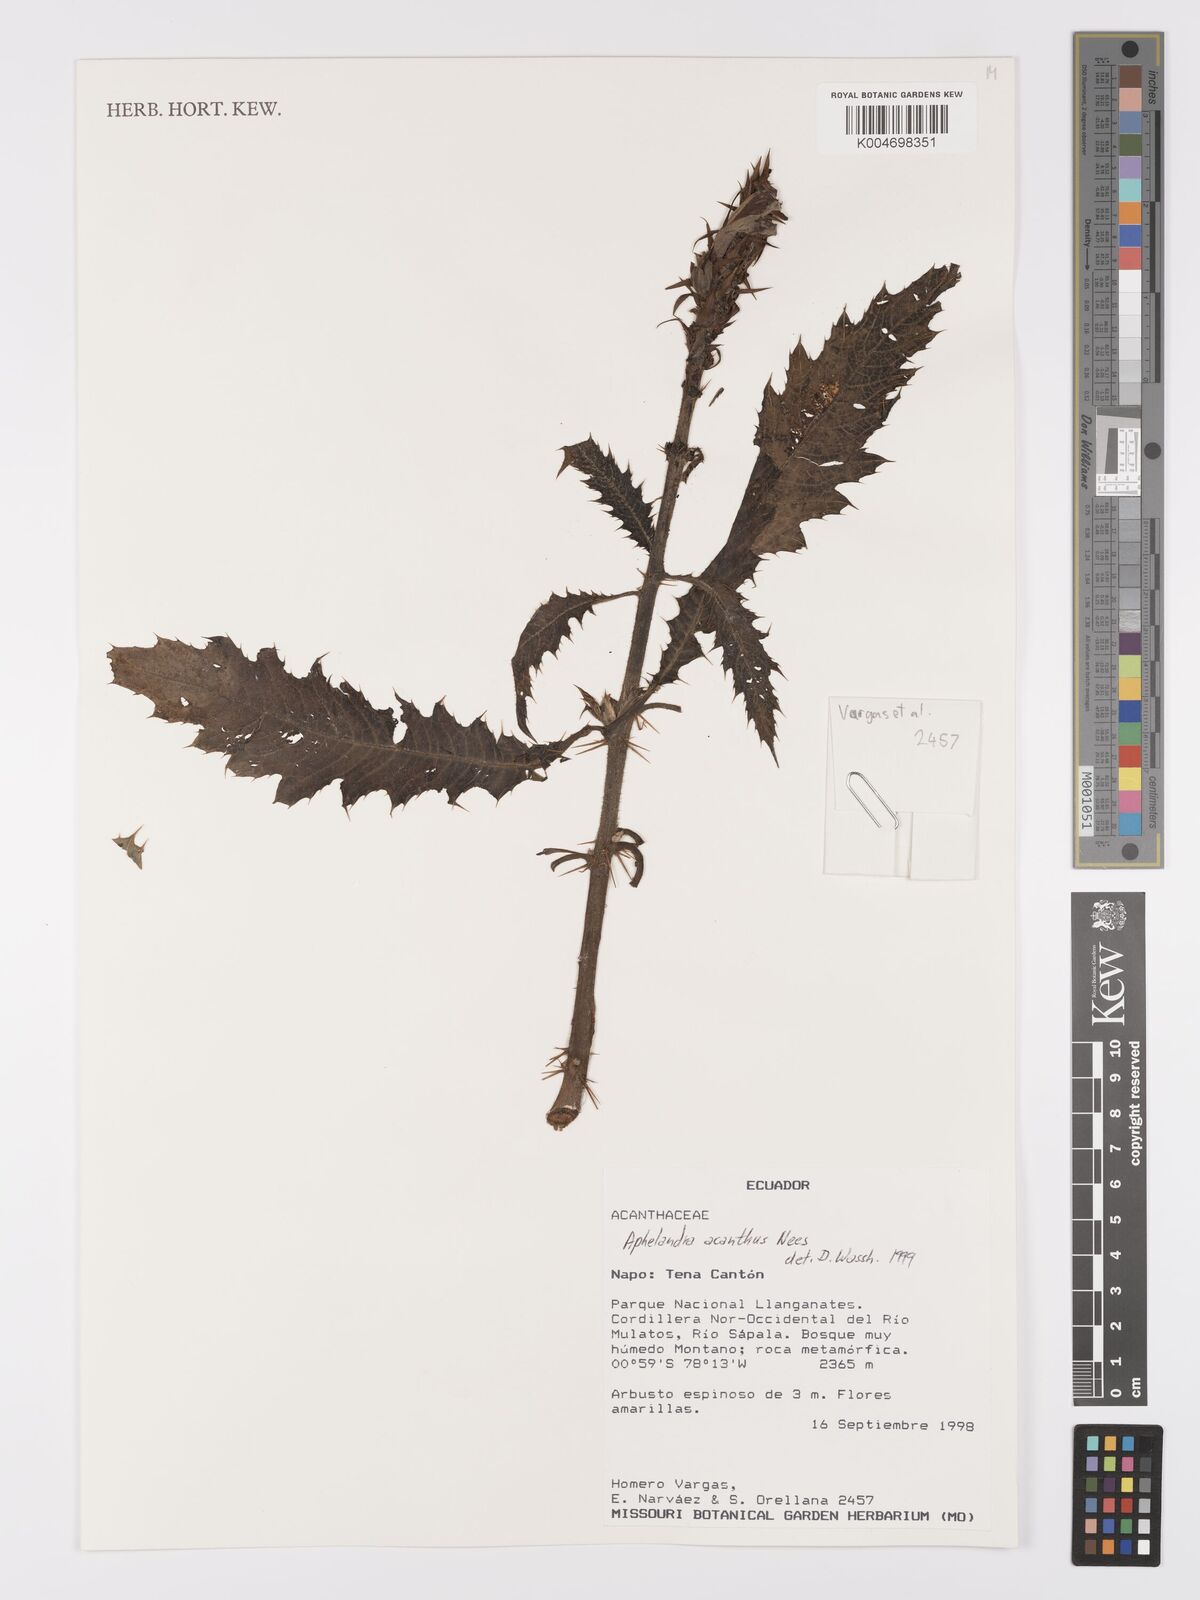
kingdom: Plantae
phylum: Tracheophyta
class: Magnoliopsida
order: Lamiales
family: Acanthaceae
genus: Aphelandra
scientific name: Aphelandra acanthus
